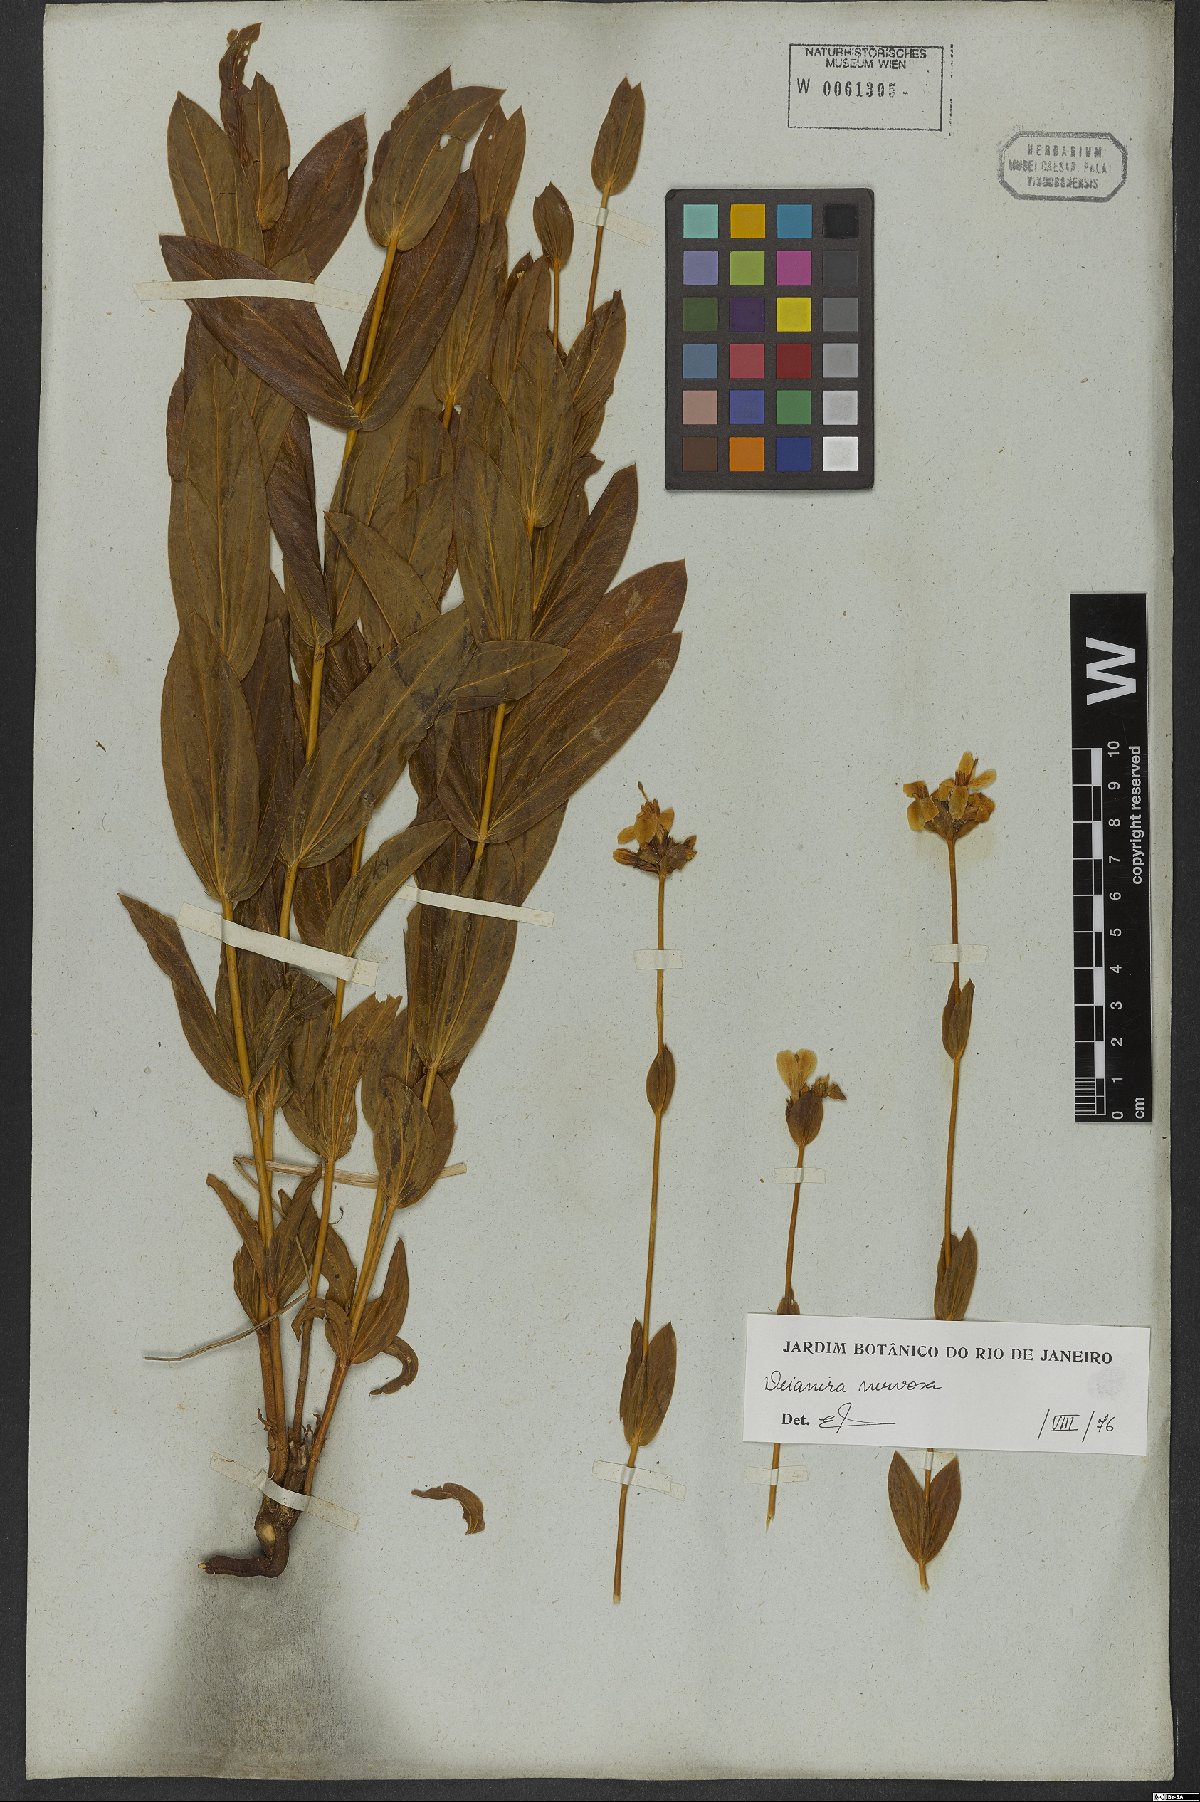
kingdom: Plantae
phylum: Tracheophyta
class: Magnoliopsida
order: Gentianales
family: Gentianaceae
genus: Deianira
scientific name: Deianira nervosa
